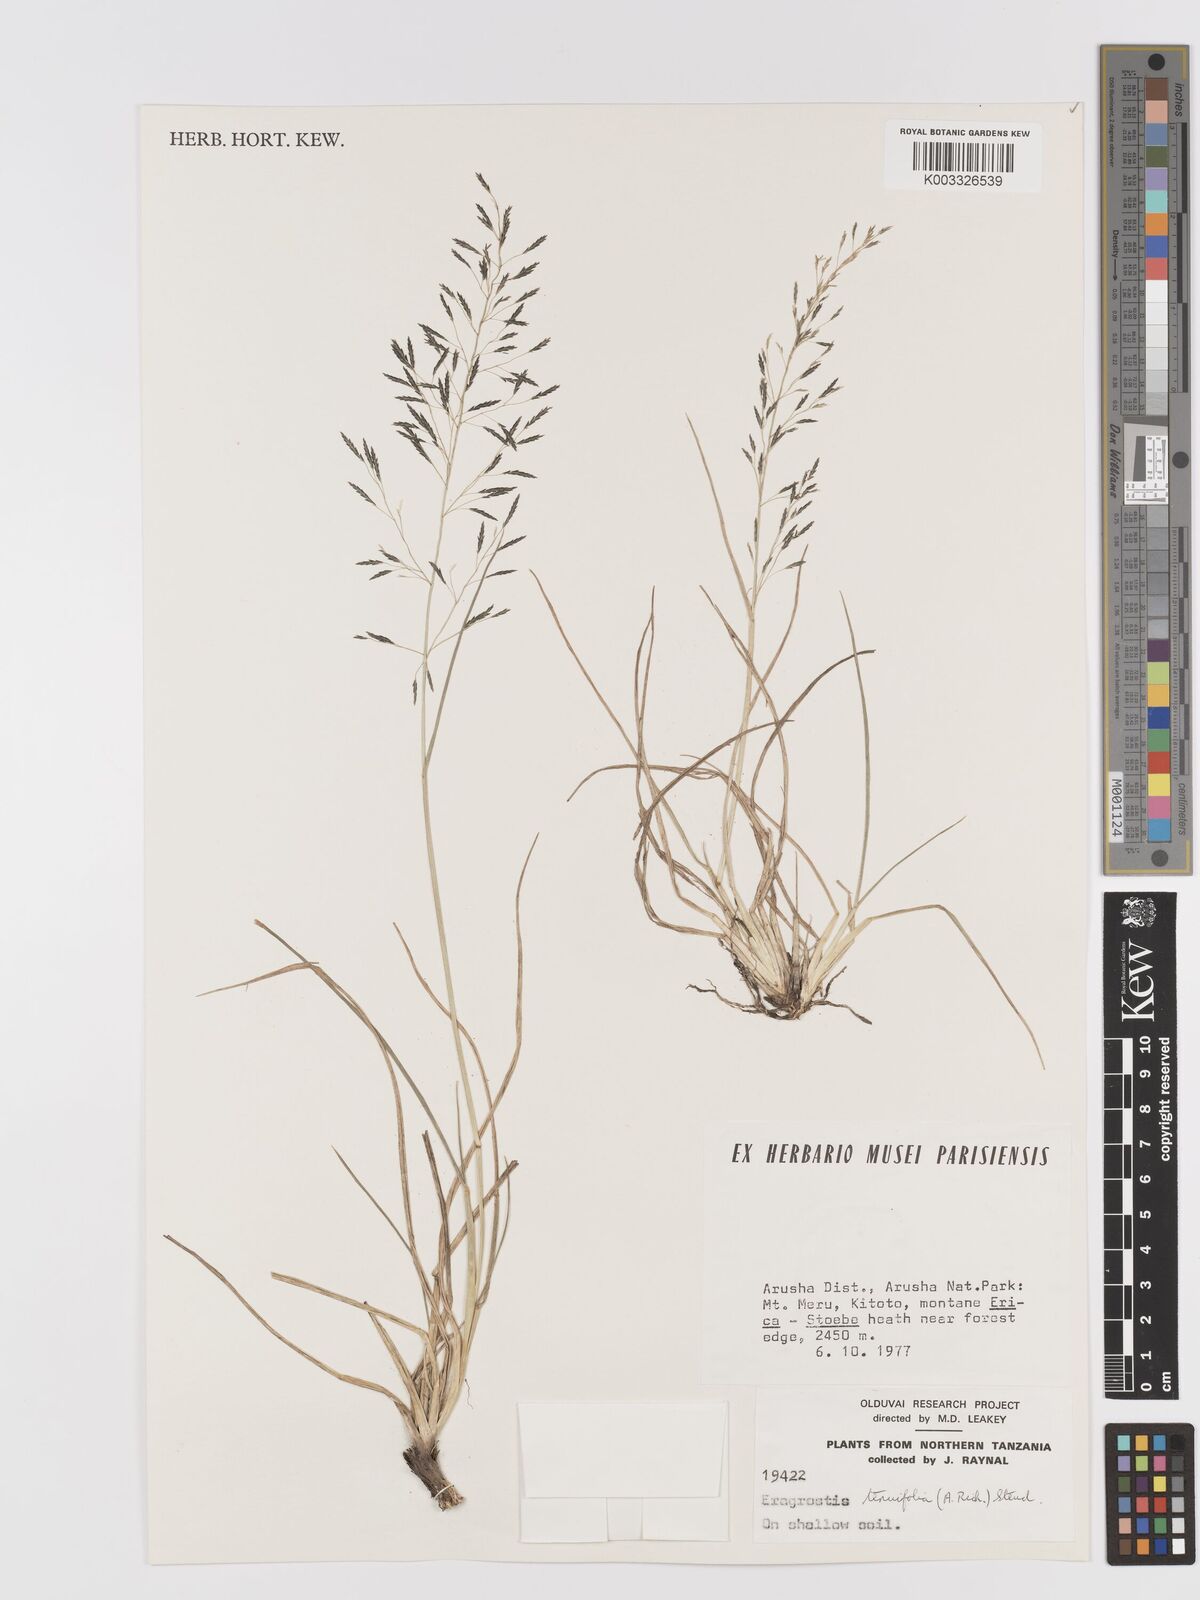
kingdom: Plantae
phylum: Tracheophyta
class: Liliopsida
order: Poales
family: Poaceae
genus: Eragrostis
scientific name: Eragrostis tenuifolia
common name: Elastic grass
